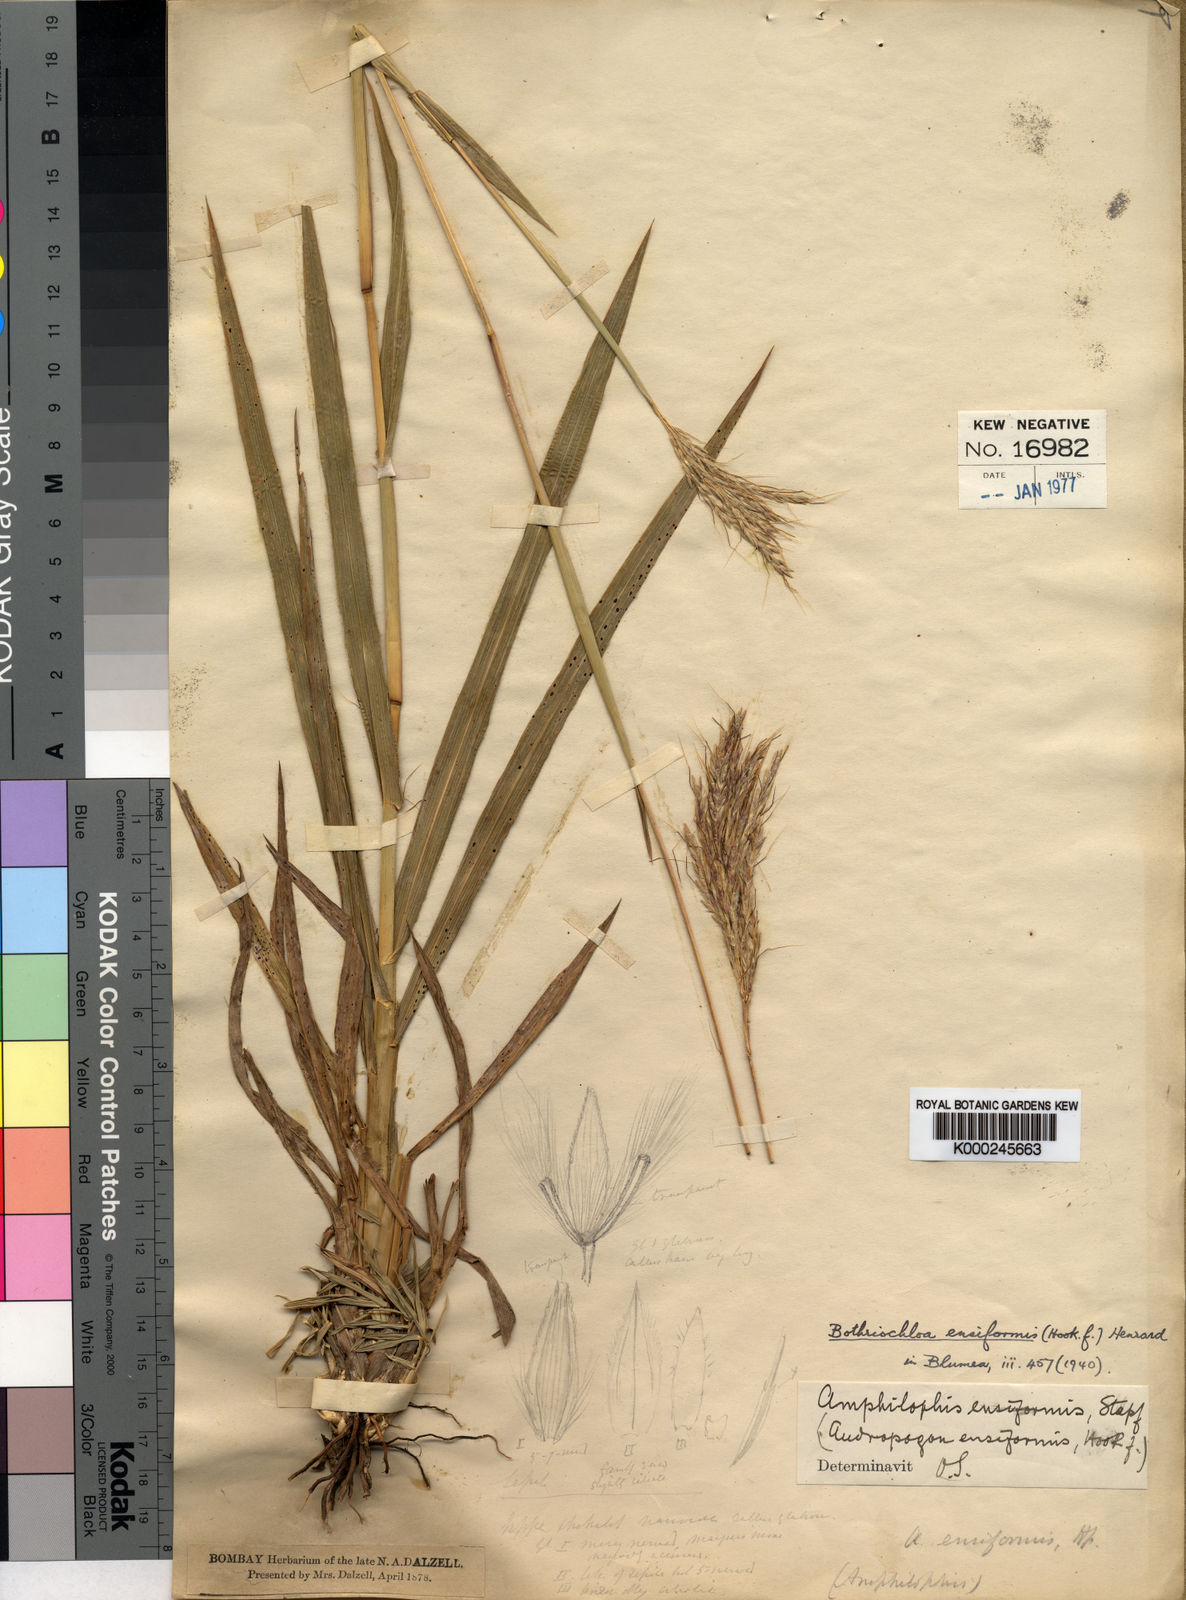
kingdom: Plantae
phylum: Tracheophyta
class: Liliopsida
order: Poales
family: Poaceae
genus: Bothriochloa
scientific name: Bothriochloa compressa
